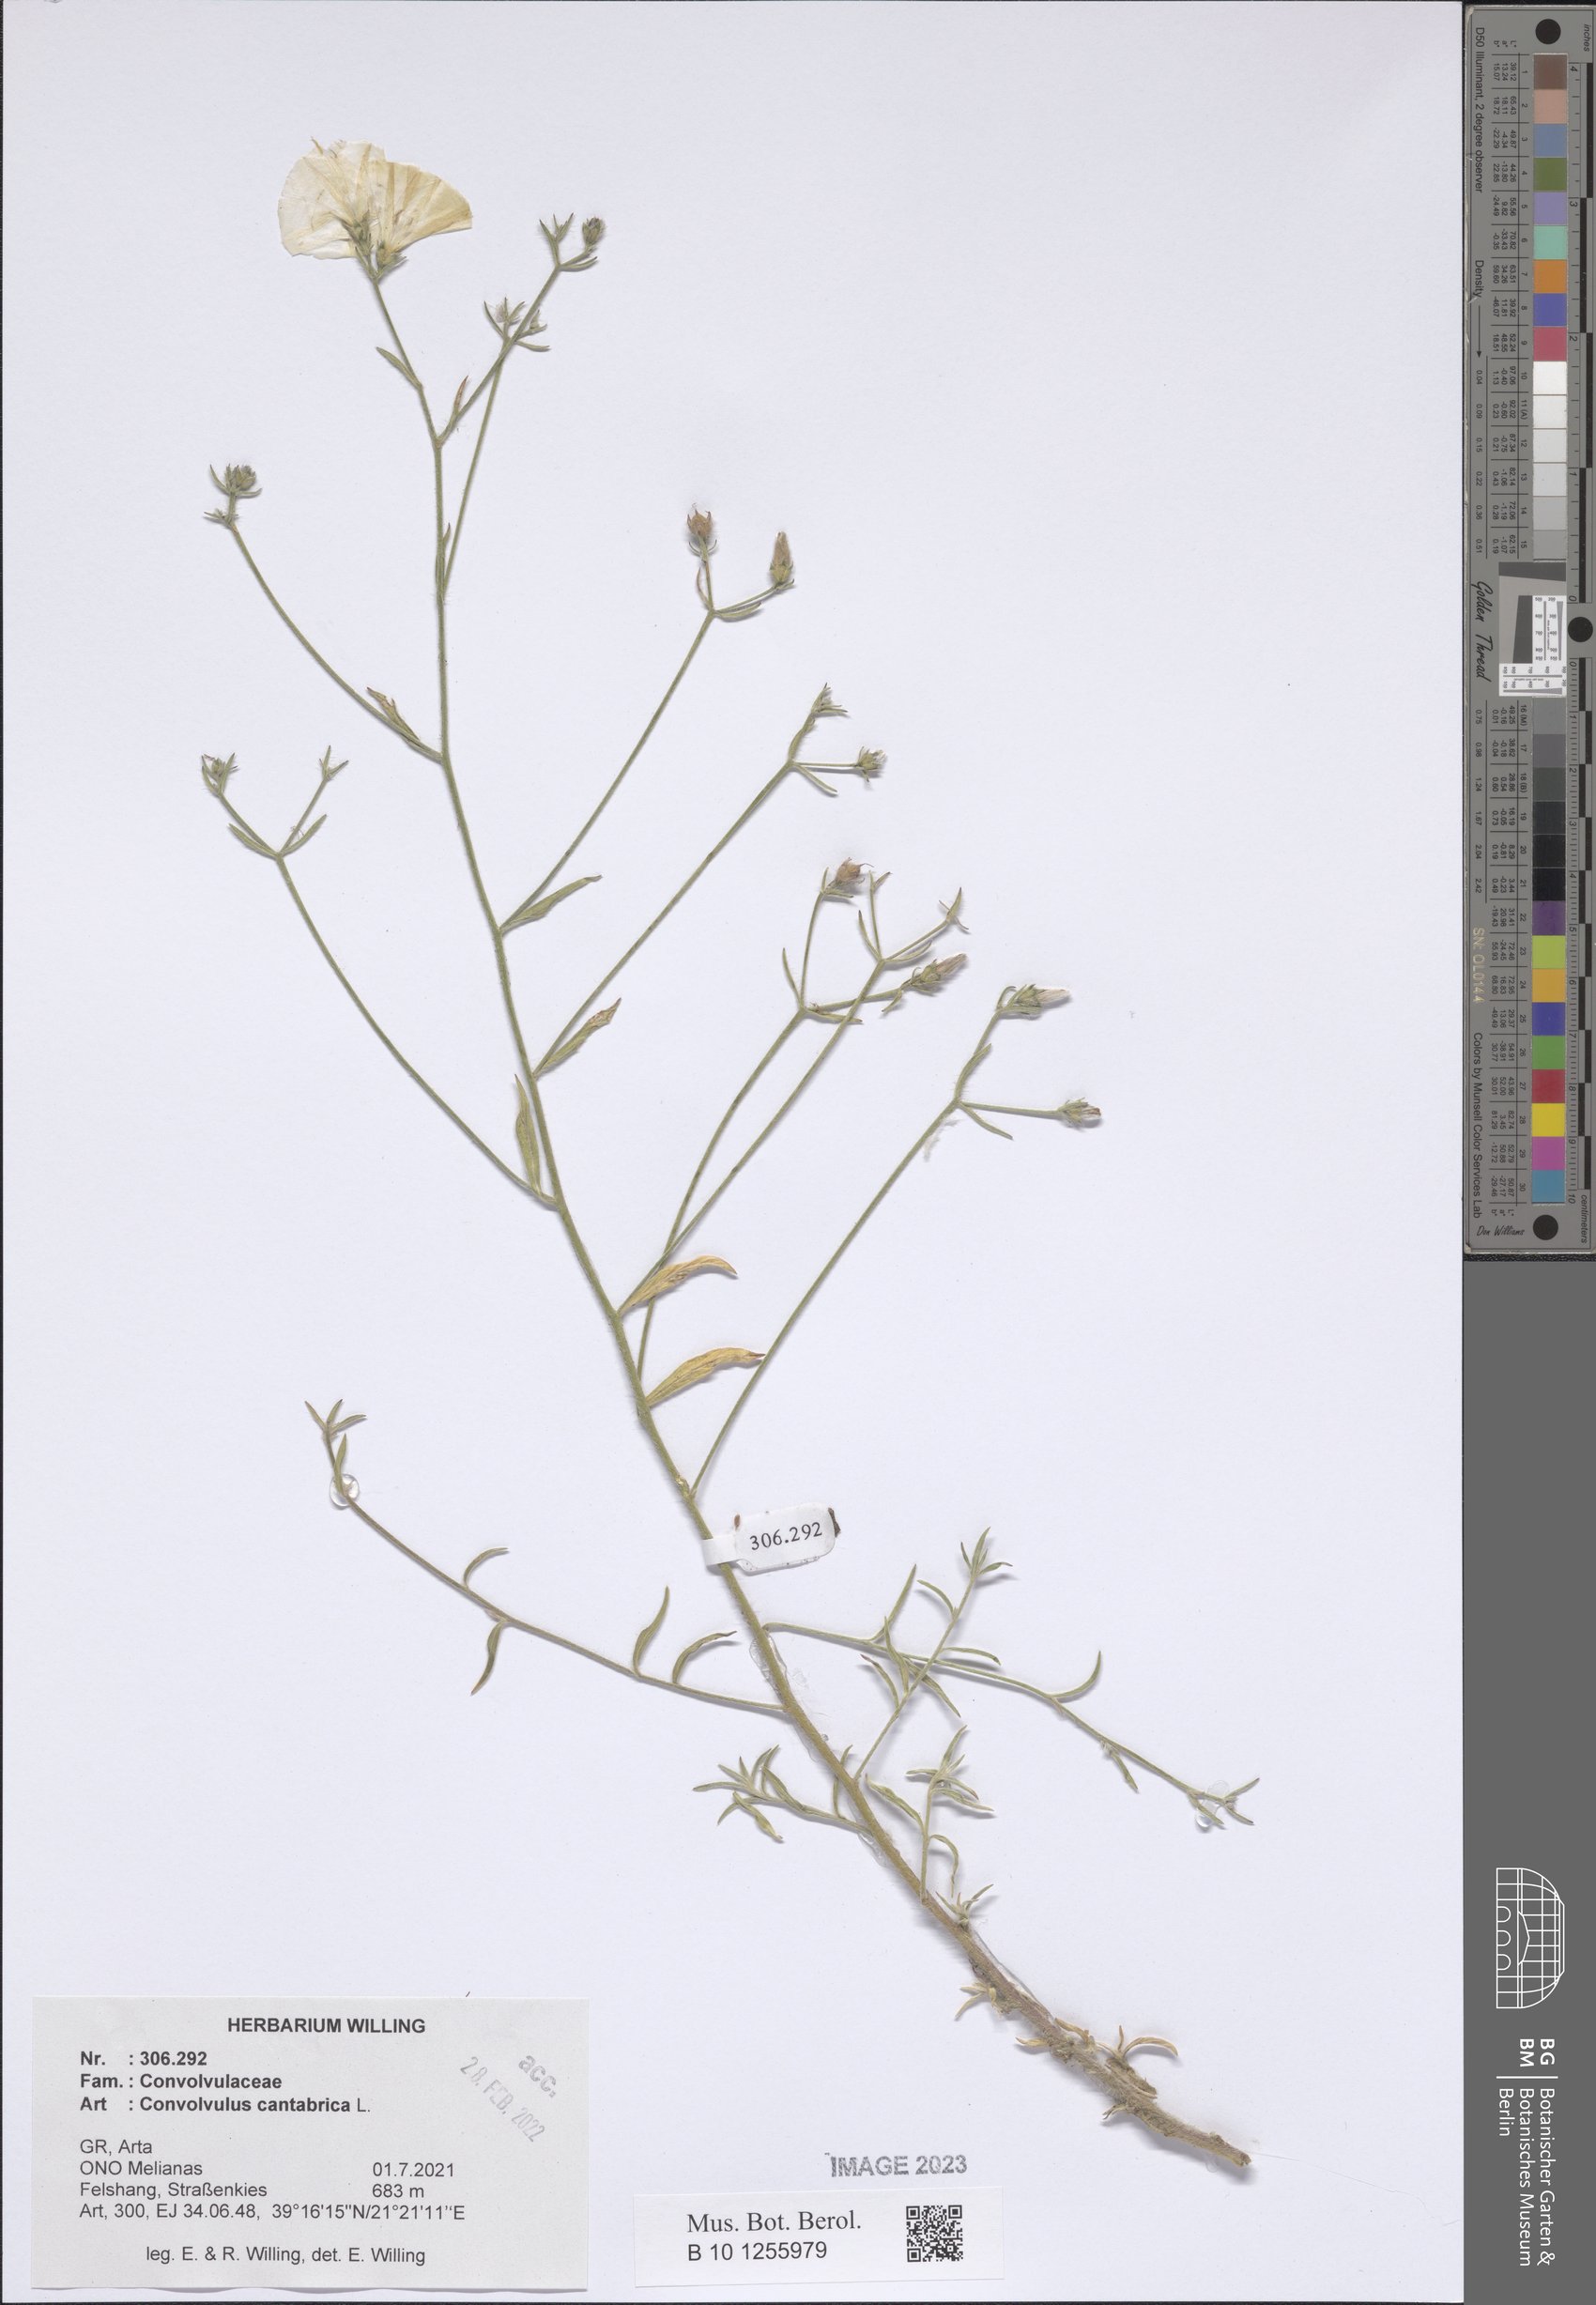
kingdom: Plantae
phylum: Tracheophyta
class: Magnoliopsida
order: Solanales
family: Convolvulaceae
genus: Convolvulus
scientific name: Convolvulus cantabrica
